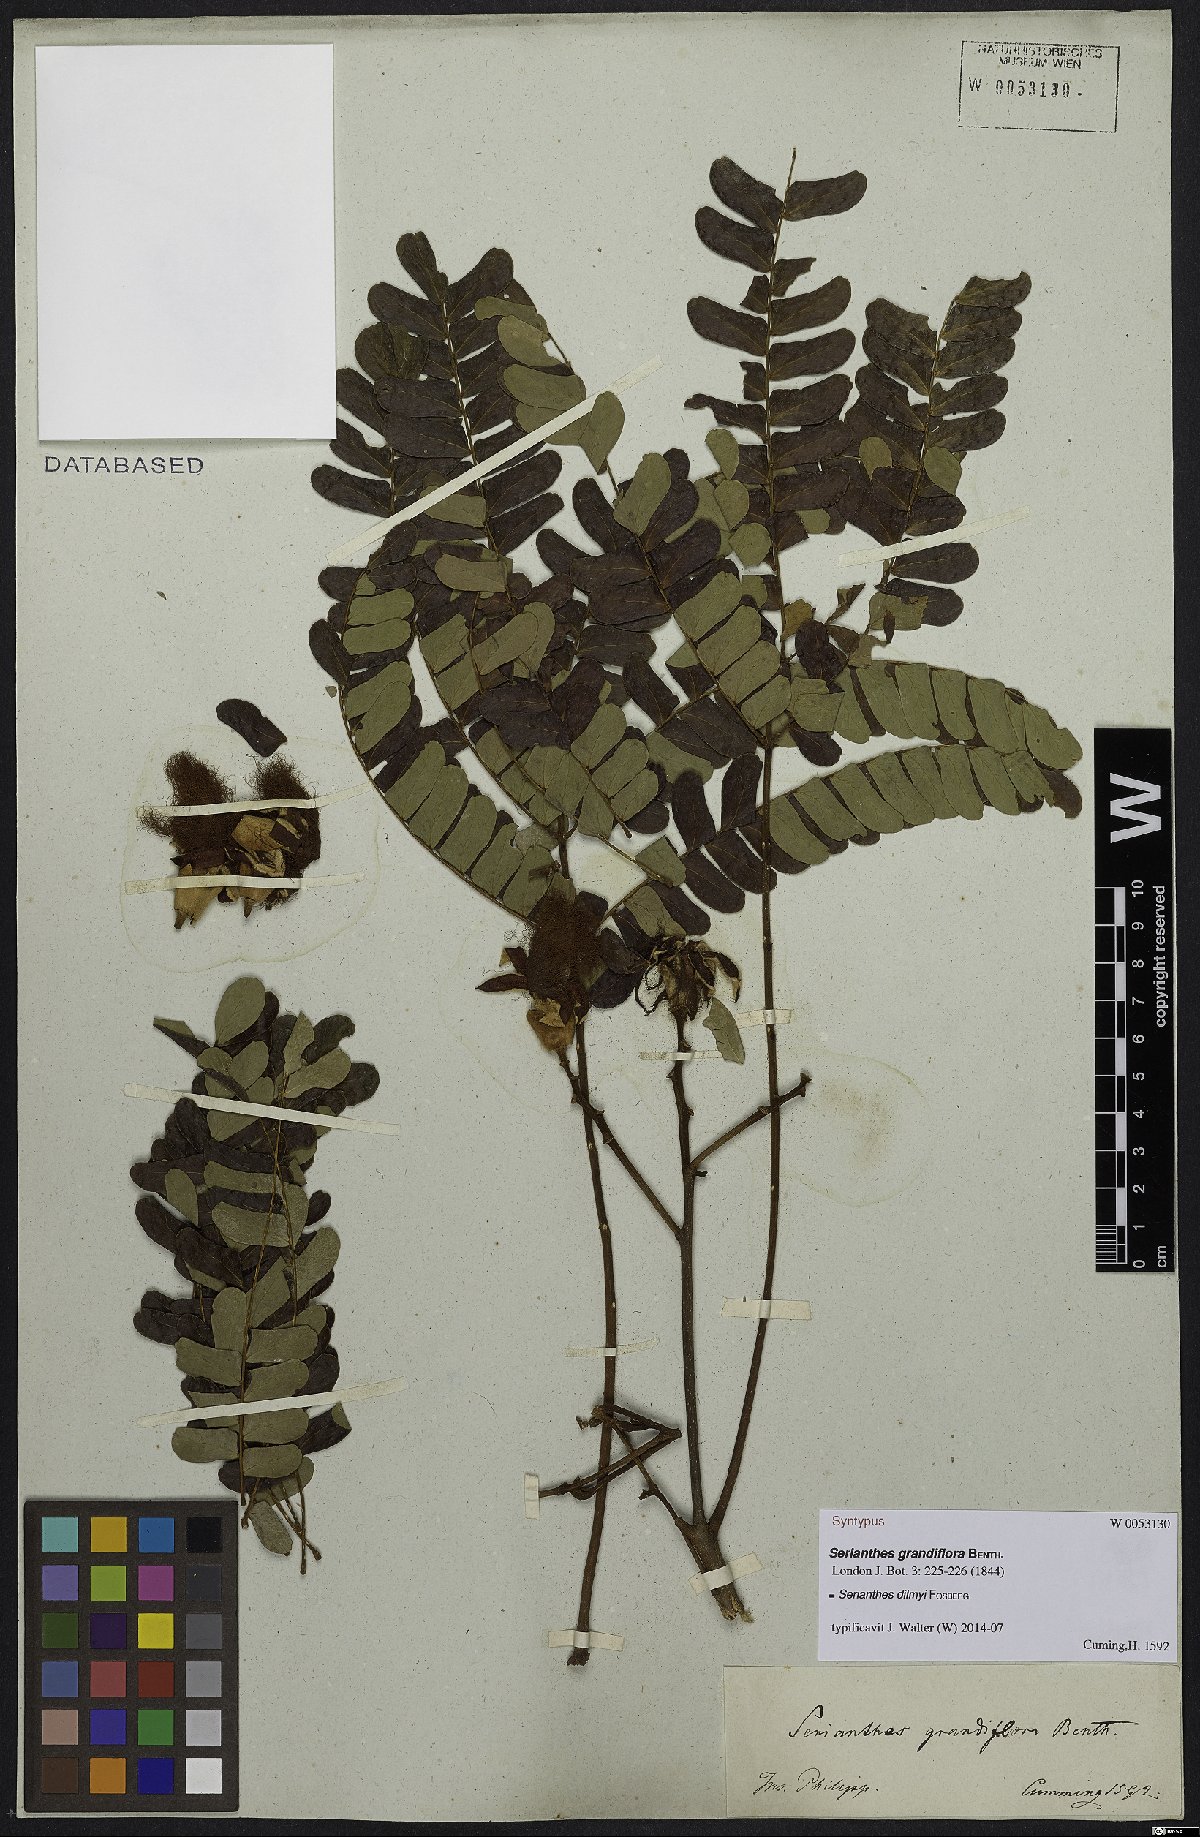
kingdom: Plantae
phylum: Tracheophyta
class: Magnoliopsida
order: Fabales
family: Fabaceae
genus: Serianthes
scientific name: Serianthes grandiflora
